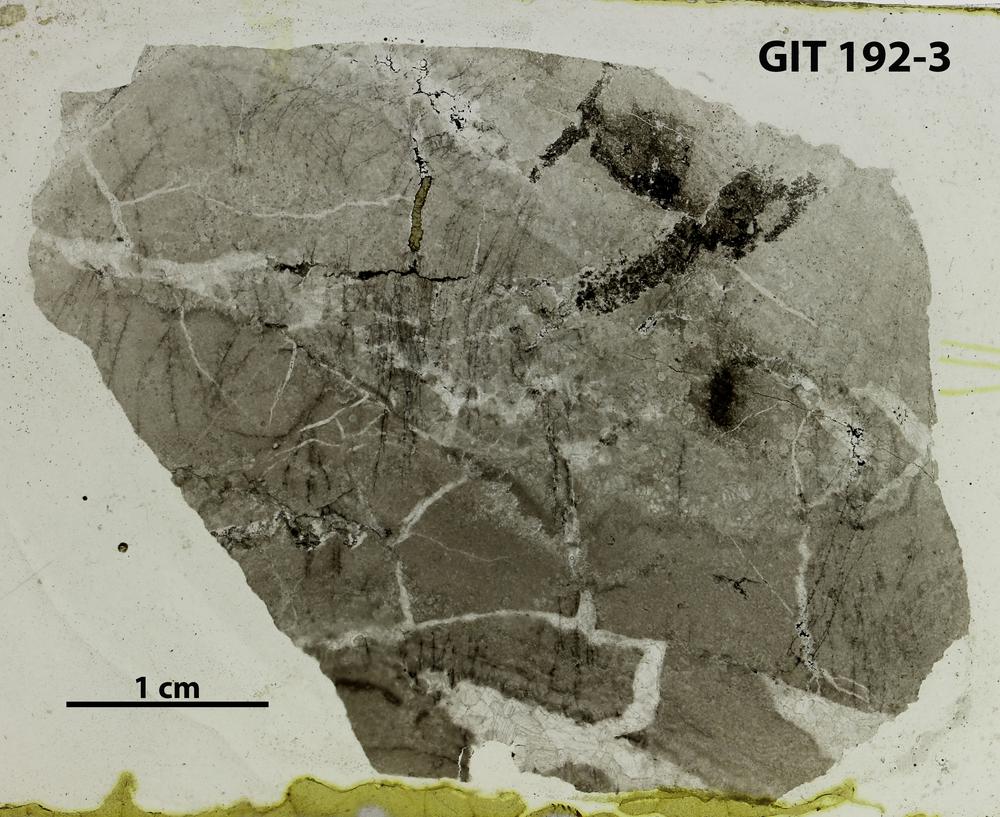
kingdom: Animalia
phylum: Porifera
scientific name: Porifera
